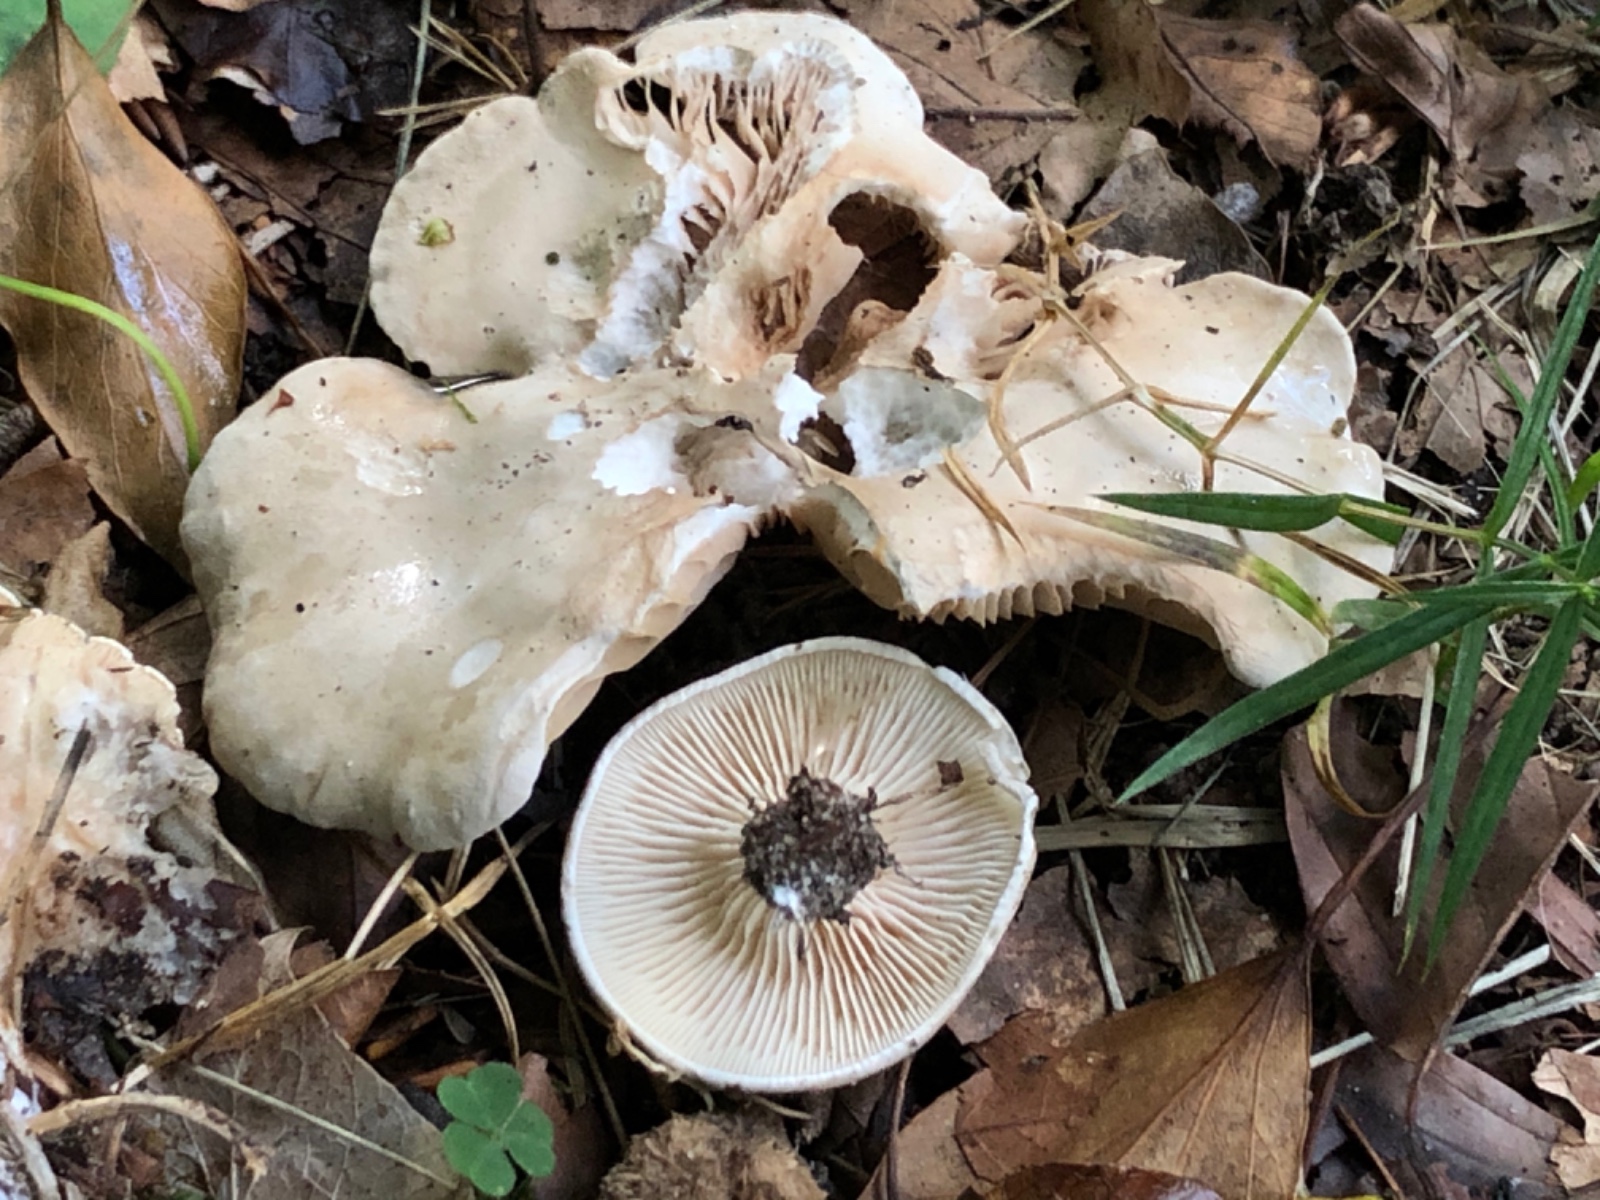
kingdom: Fungi
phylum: Basidiomycota
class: Agaricomycetes
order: Agaricales
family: Entolomataceae
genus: Clitopilus
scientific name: Clitopilus prunulus
